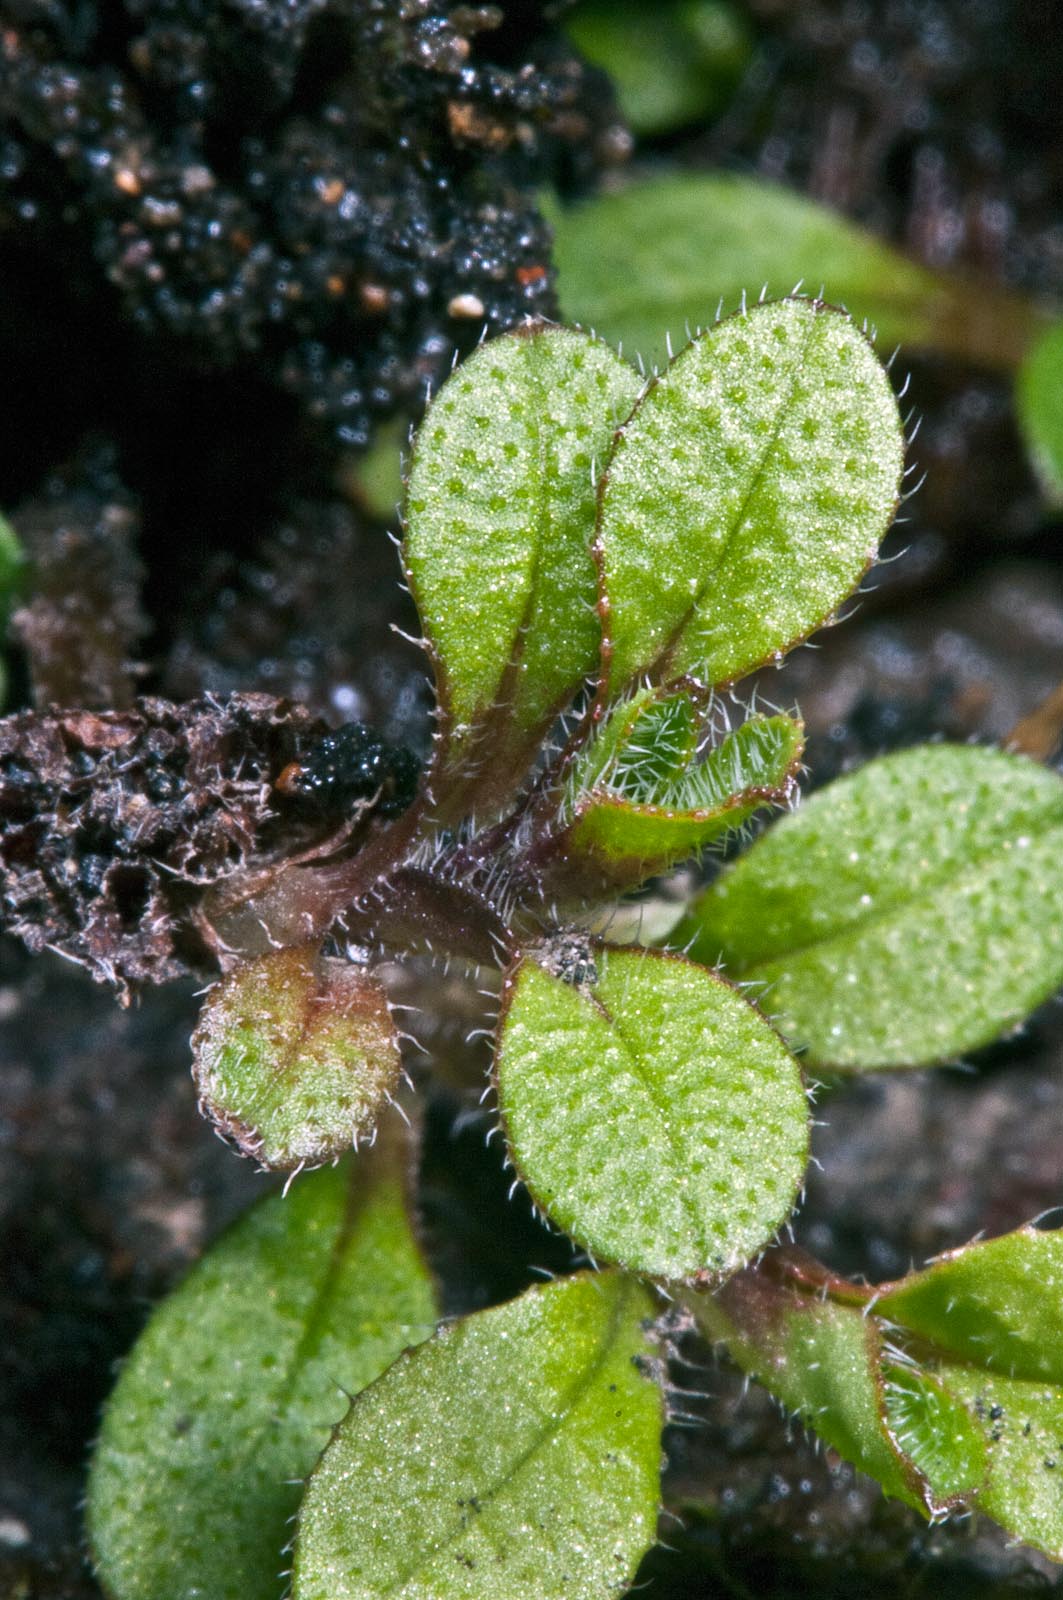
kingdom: Plantae
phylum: Tracheophyta
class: Magnoliopsida
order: Boraginales
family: Boraginaceae
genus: Myosotis
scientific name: Myosotis antarctica
